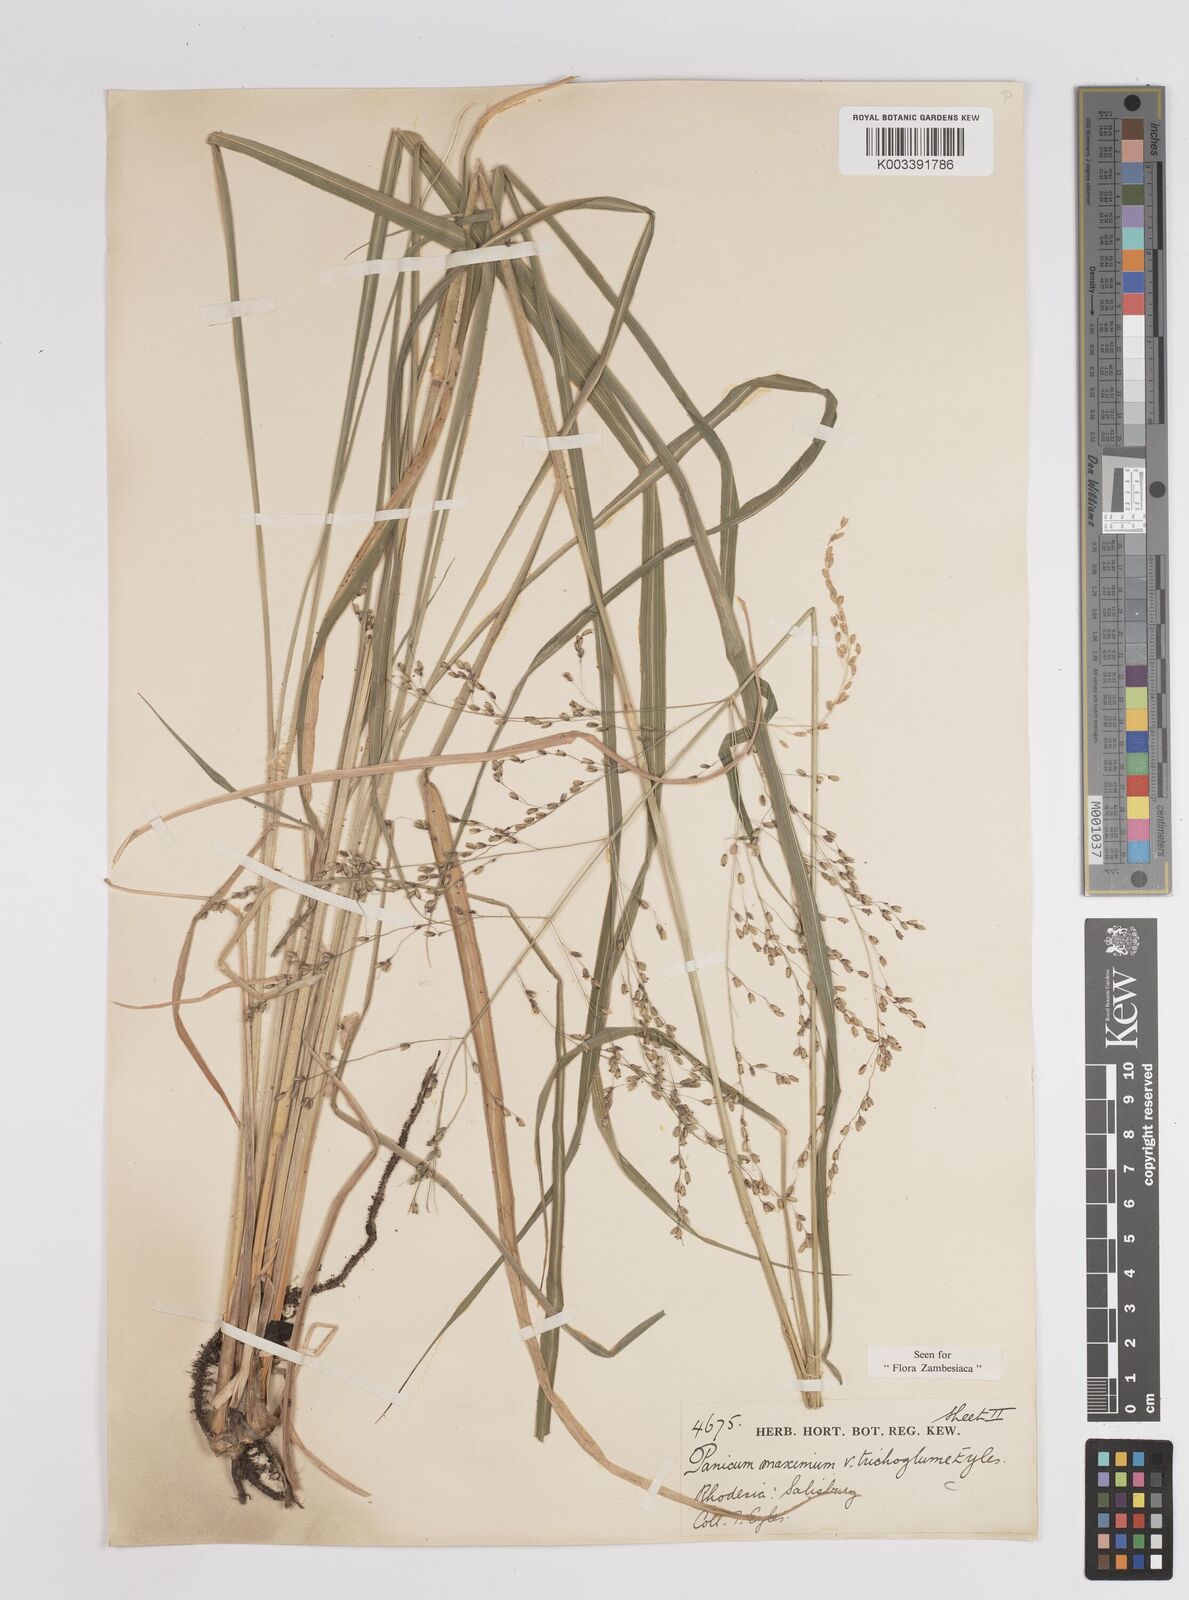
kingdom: Plantae
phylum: Tracheophyta
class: Liliopsida
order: Poales
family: Poaceae
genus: Megathyrsus
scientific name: Megathyrsus maximus
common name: Guineagrass
